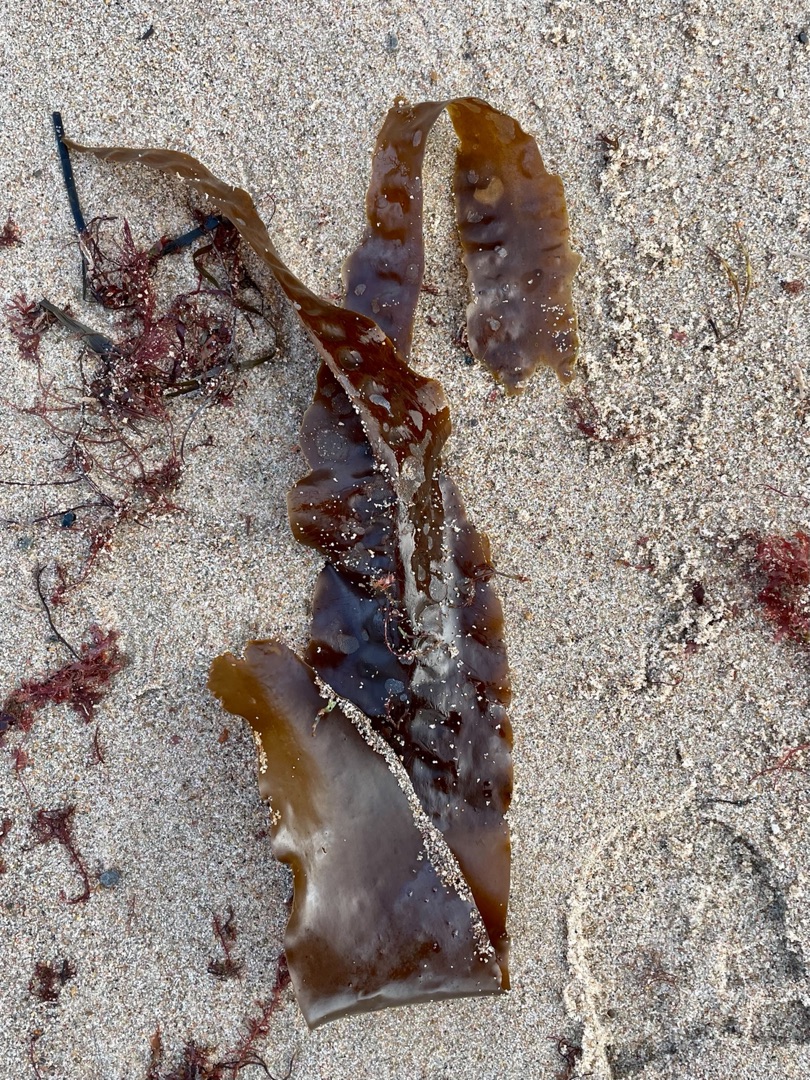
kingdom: Chromista
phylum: Ochrophyta
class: Phaeophyceae
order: Laminariales
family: Laminariaceae
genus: Saccharina
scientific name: Saccharina latissima
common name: Sukkertang
